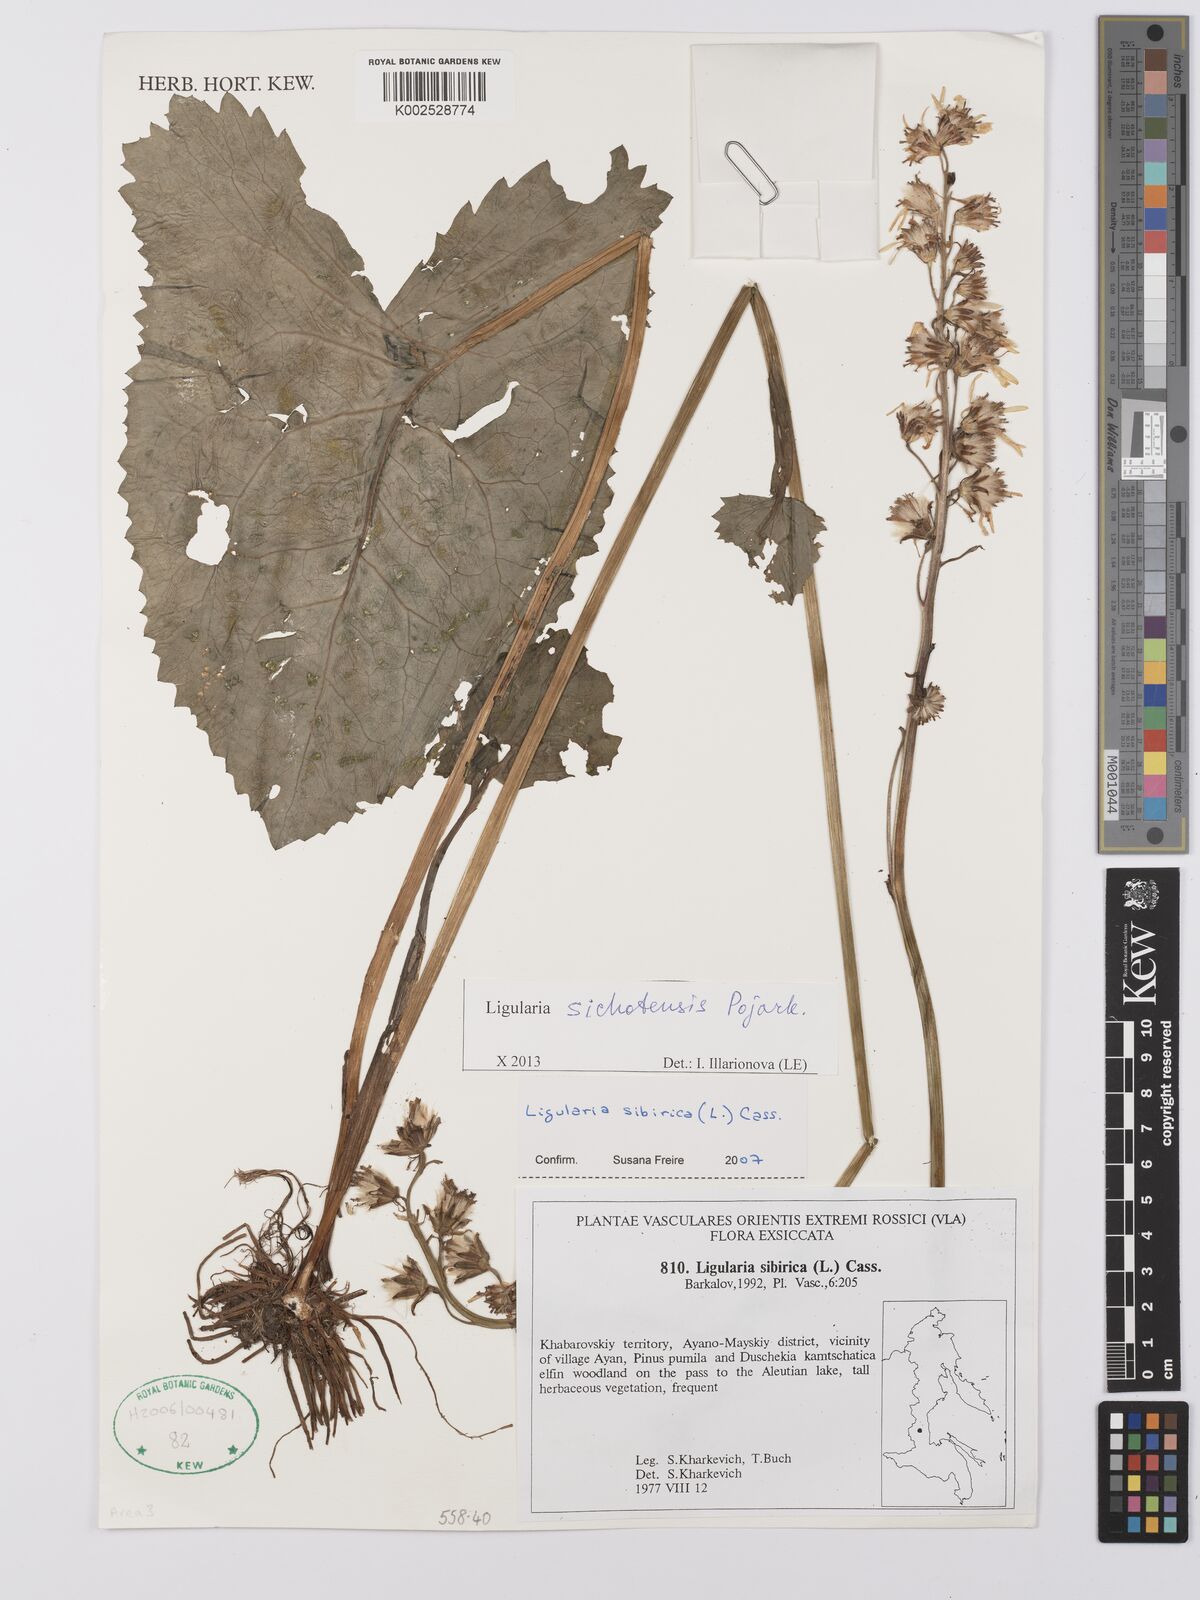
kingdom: Plantae
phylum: Tracheophyta
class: Magnoliopsida
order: Asterales
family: Asteraceae
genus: Ligularia
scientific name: Ligularia sichotensis
